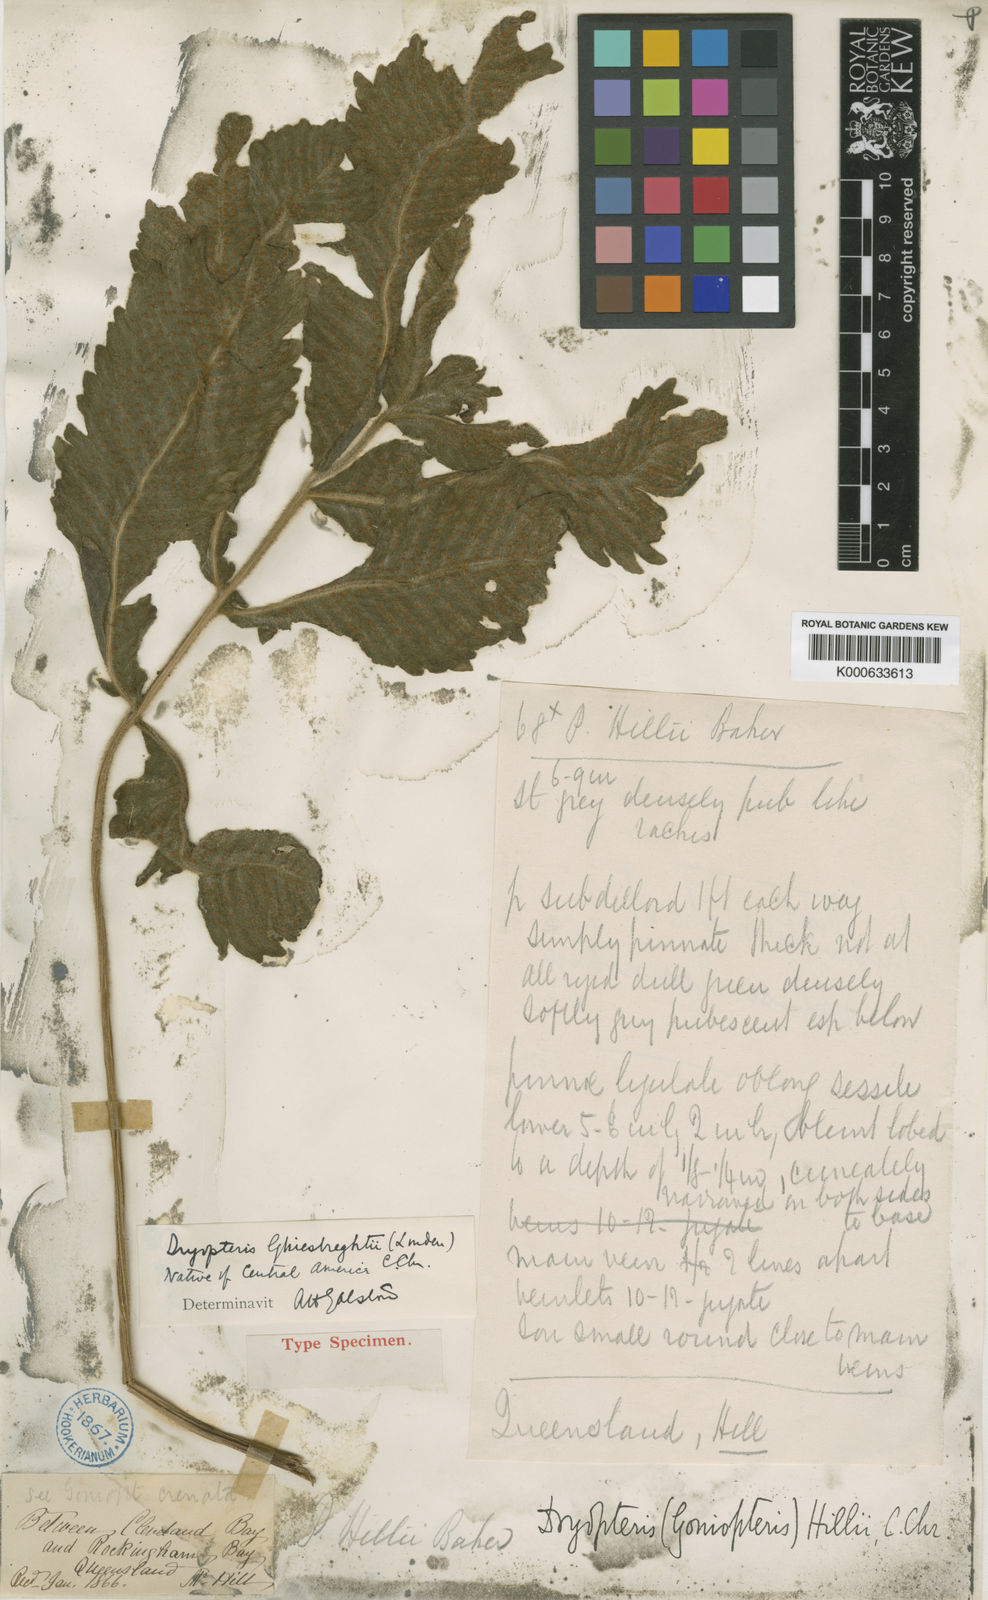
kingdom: Plantae
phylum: Tracheophyta
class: Polypodiopsida
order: Polypodiales
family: Thelypteridaceae
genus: Goniopteris
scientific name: Goniopteris ghiesbrechtii
